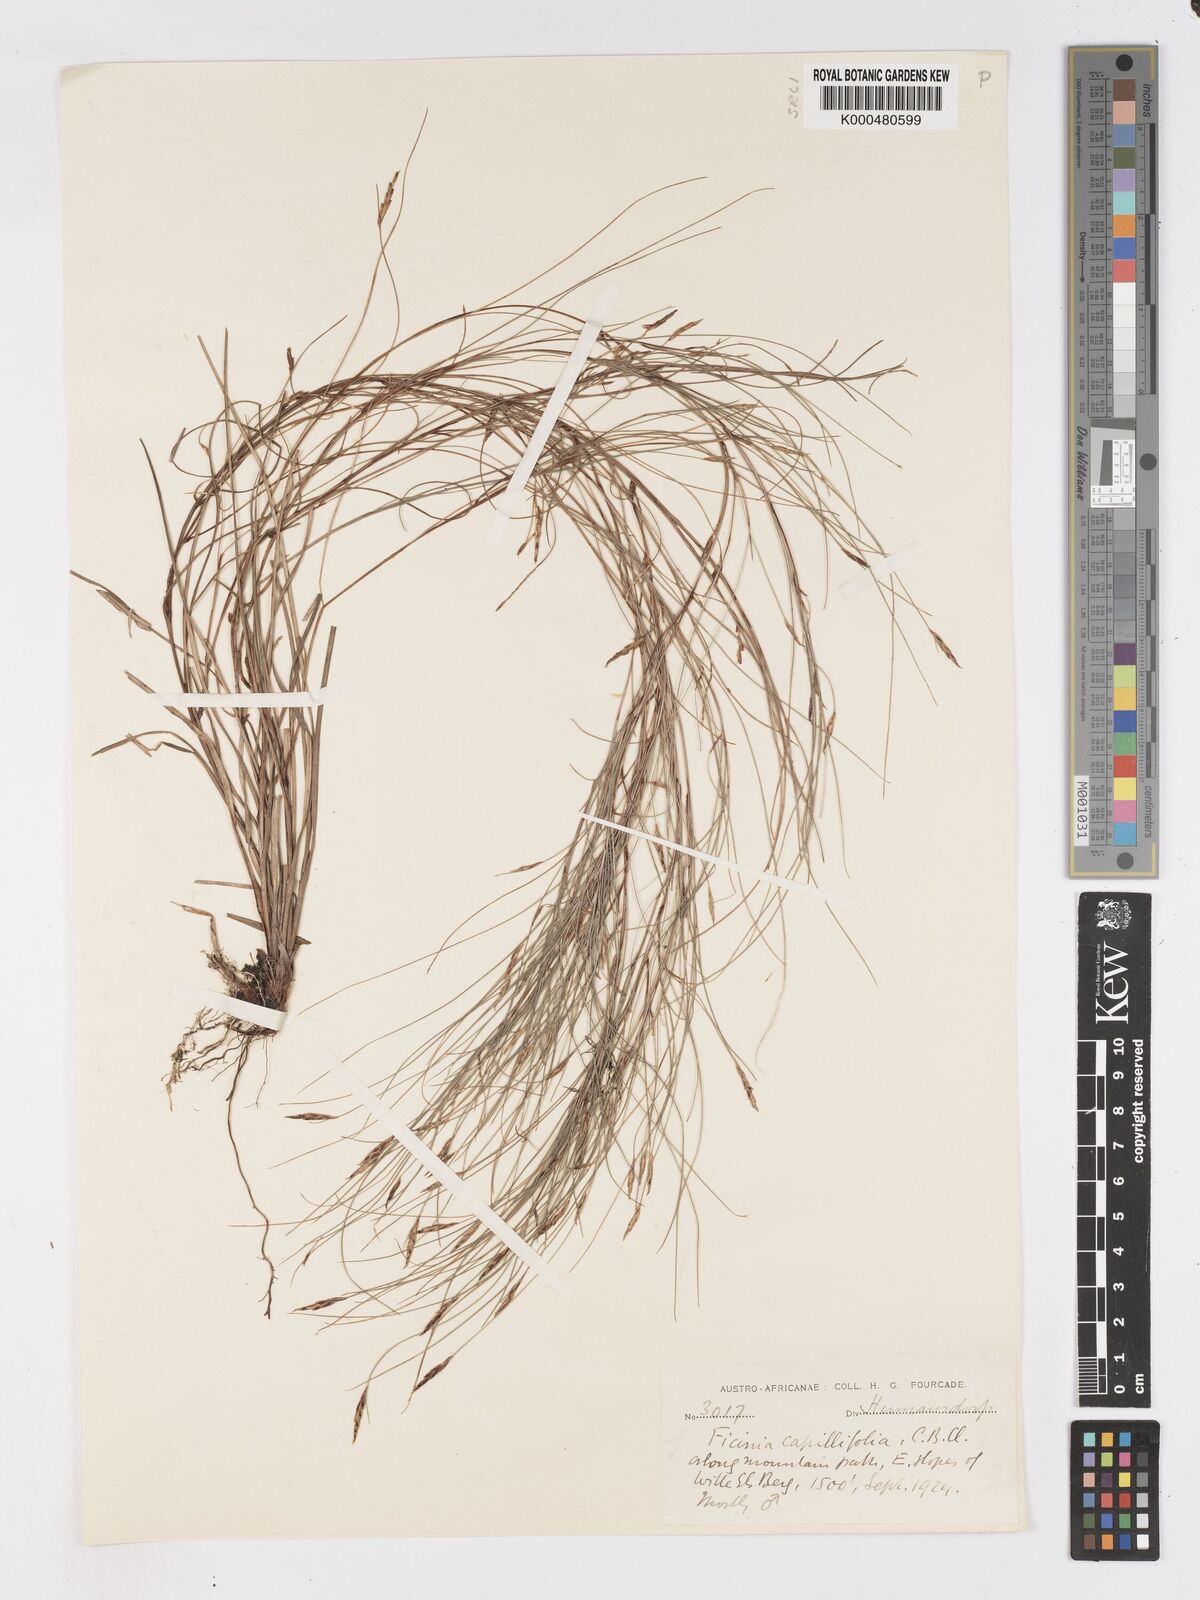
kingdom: Plantae
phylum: Tracheophyta
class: Liliopsida
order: Poales
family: Cyperaceae
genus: Ficinia
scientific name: Ficinia capillifolia
